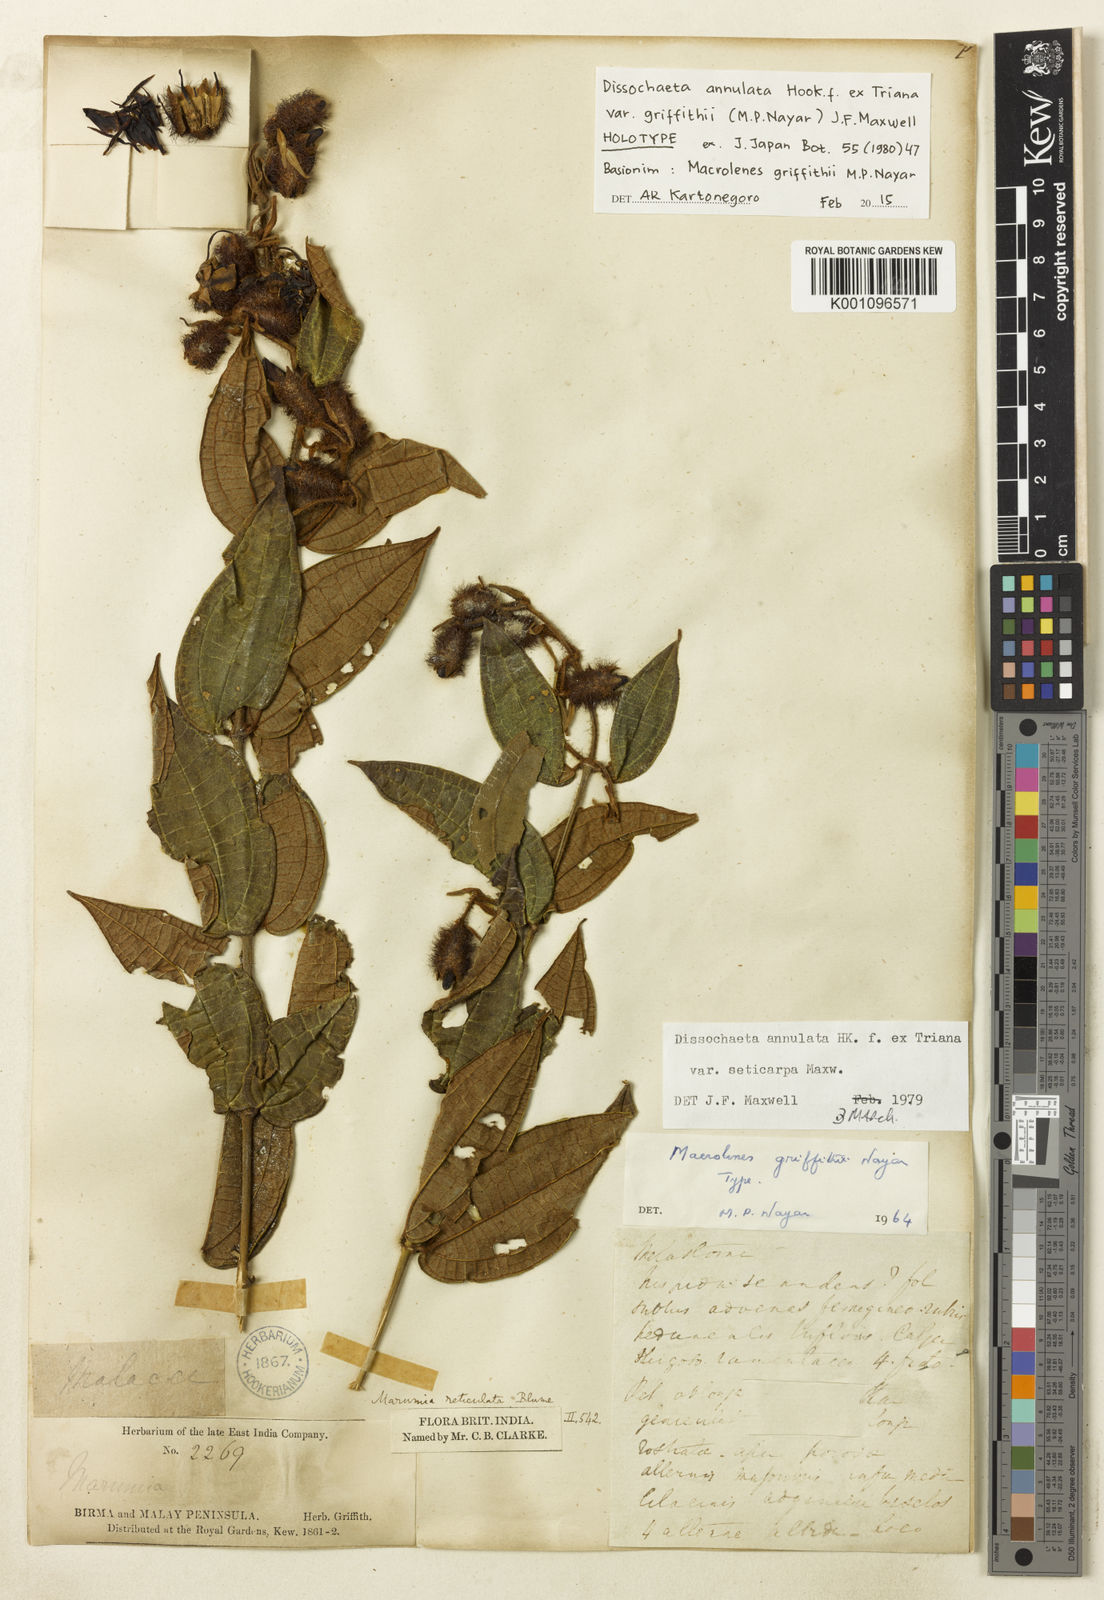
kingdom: Plantae
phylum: Tracheophyta
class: Magnoliopsida
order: Myrtales
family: Melastomataceae
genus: Dissochaeta
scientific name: Dissochaeta griffithii
